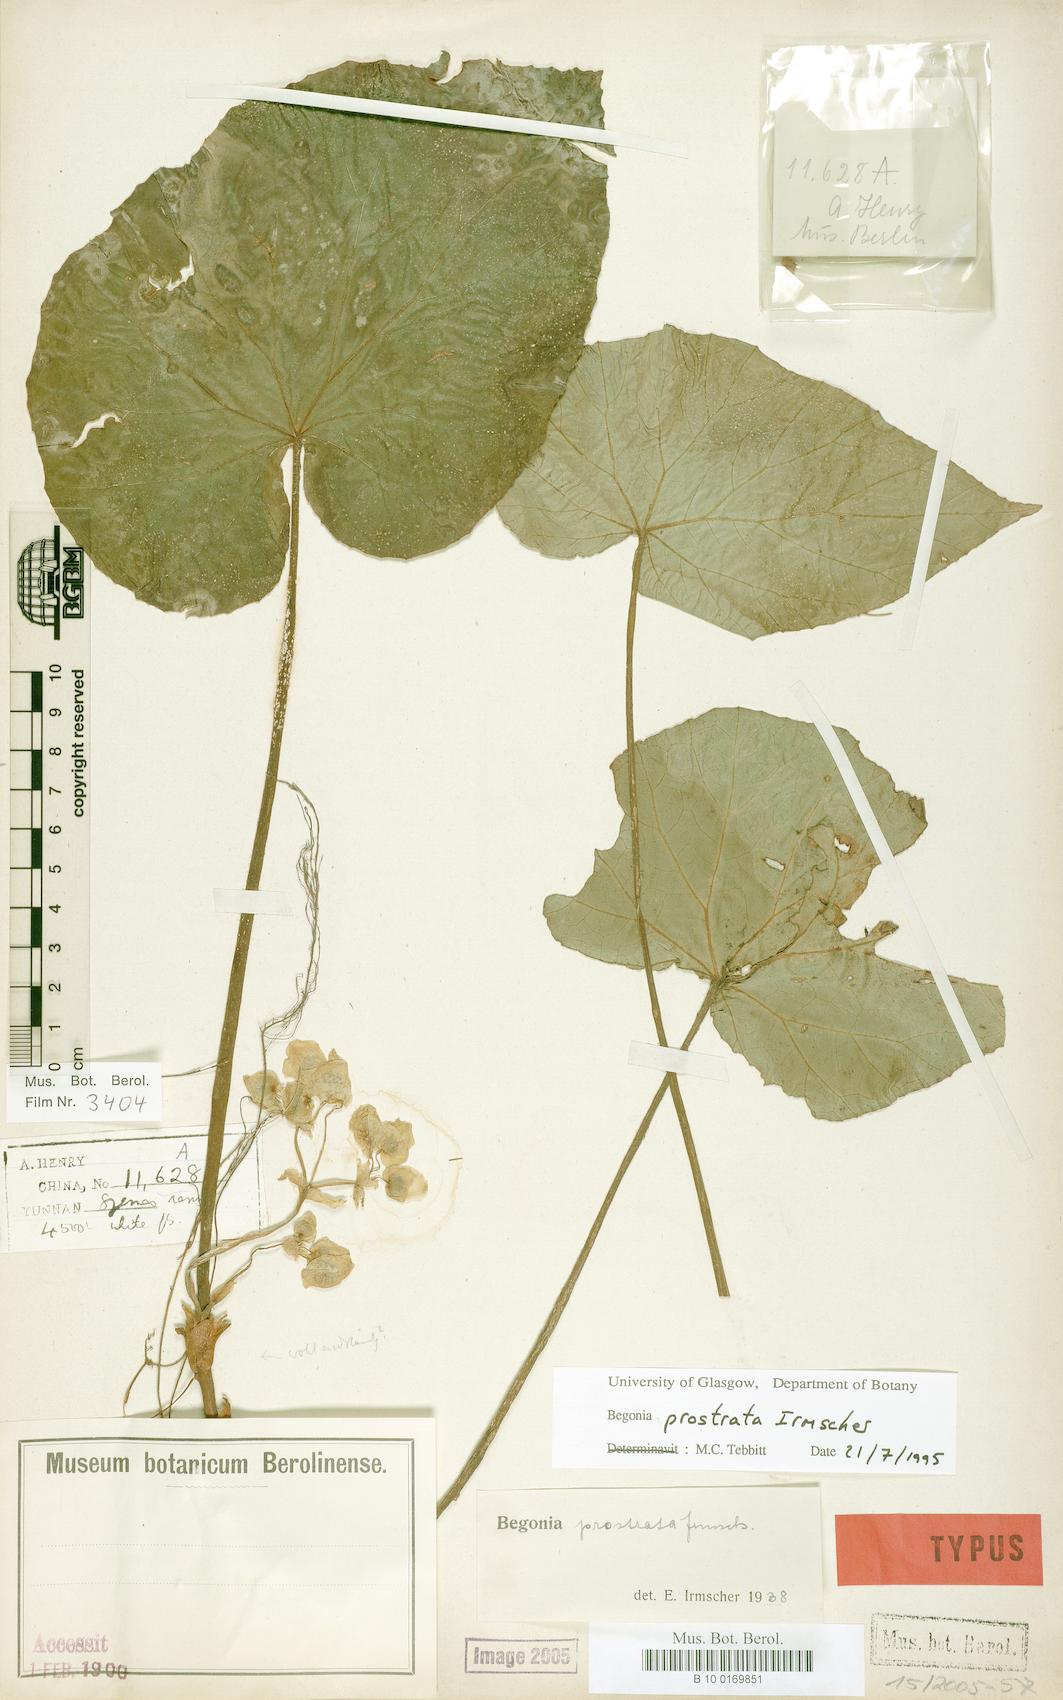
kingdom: Plantae
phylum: Tracheophyta
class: Magnoliopsida
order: Cucurbitales
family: Begoniaceae
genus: Begonia
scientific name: Begonia handelii
